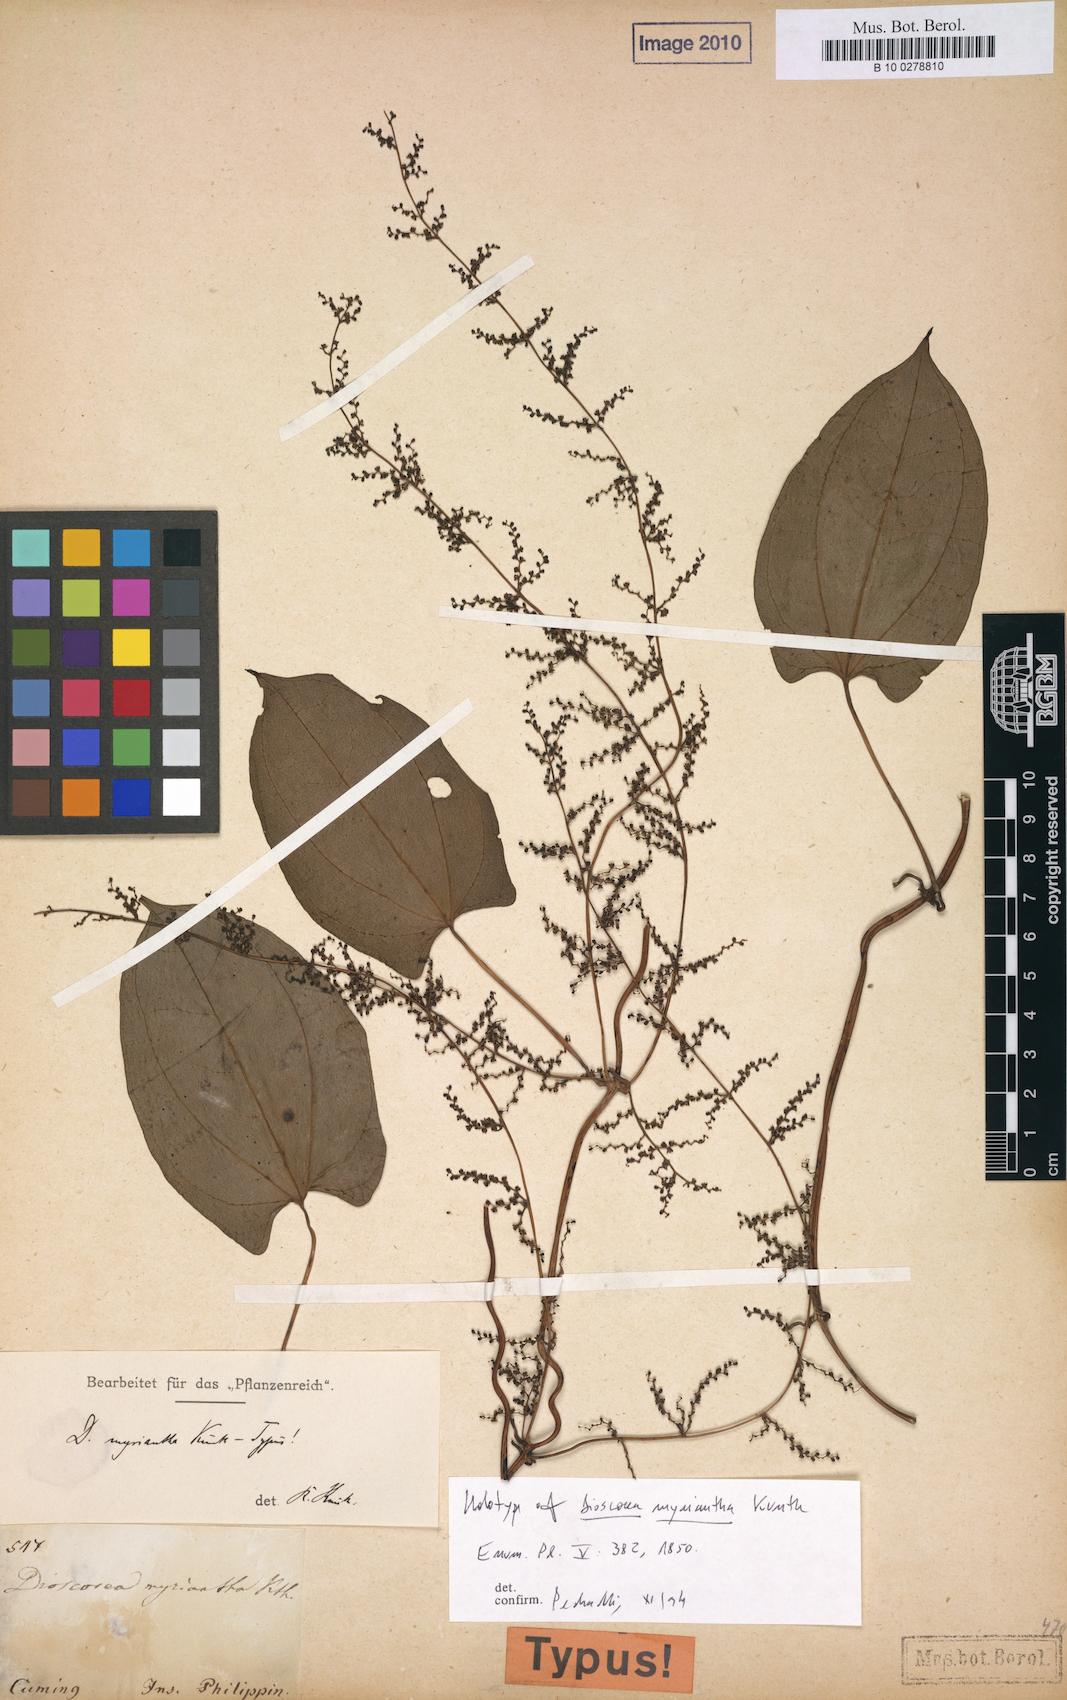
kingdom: Plantae
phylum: Tracheophyta
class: Liliopsida
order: Dioscoreales
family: Dioscoreaceae
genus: Dioscorea
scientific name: Dioscorea myrantha
